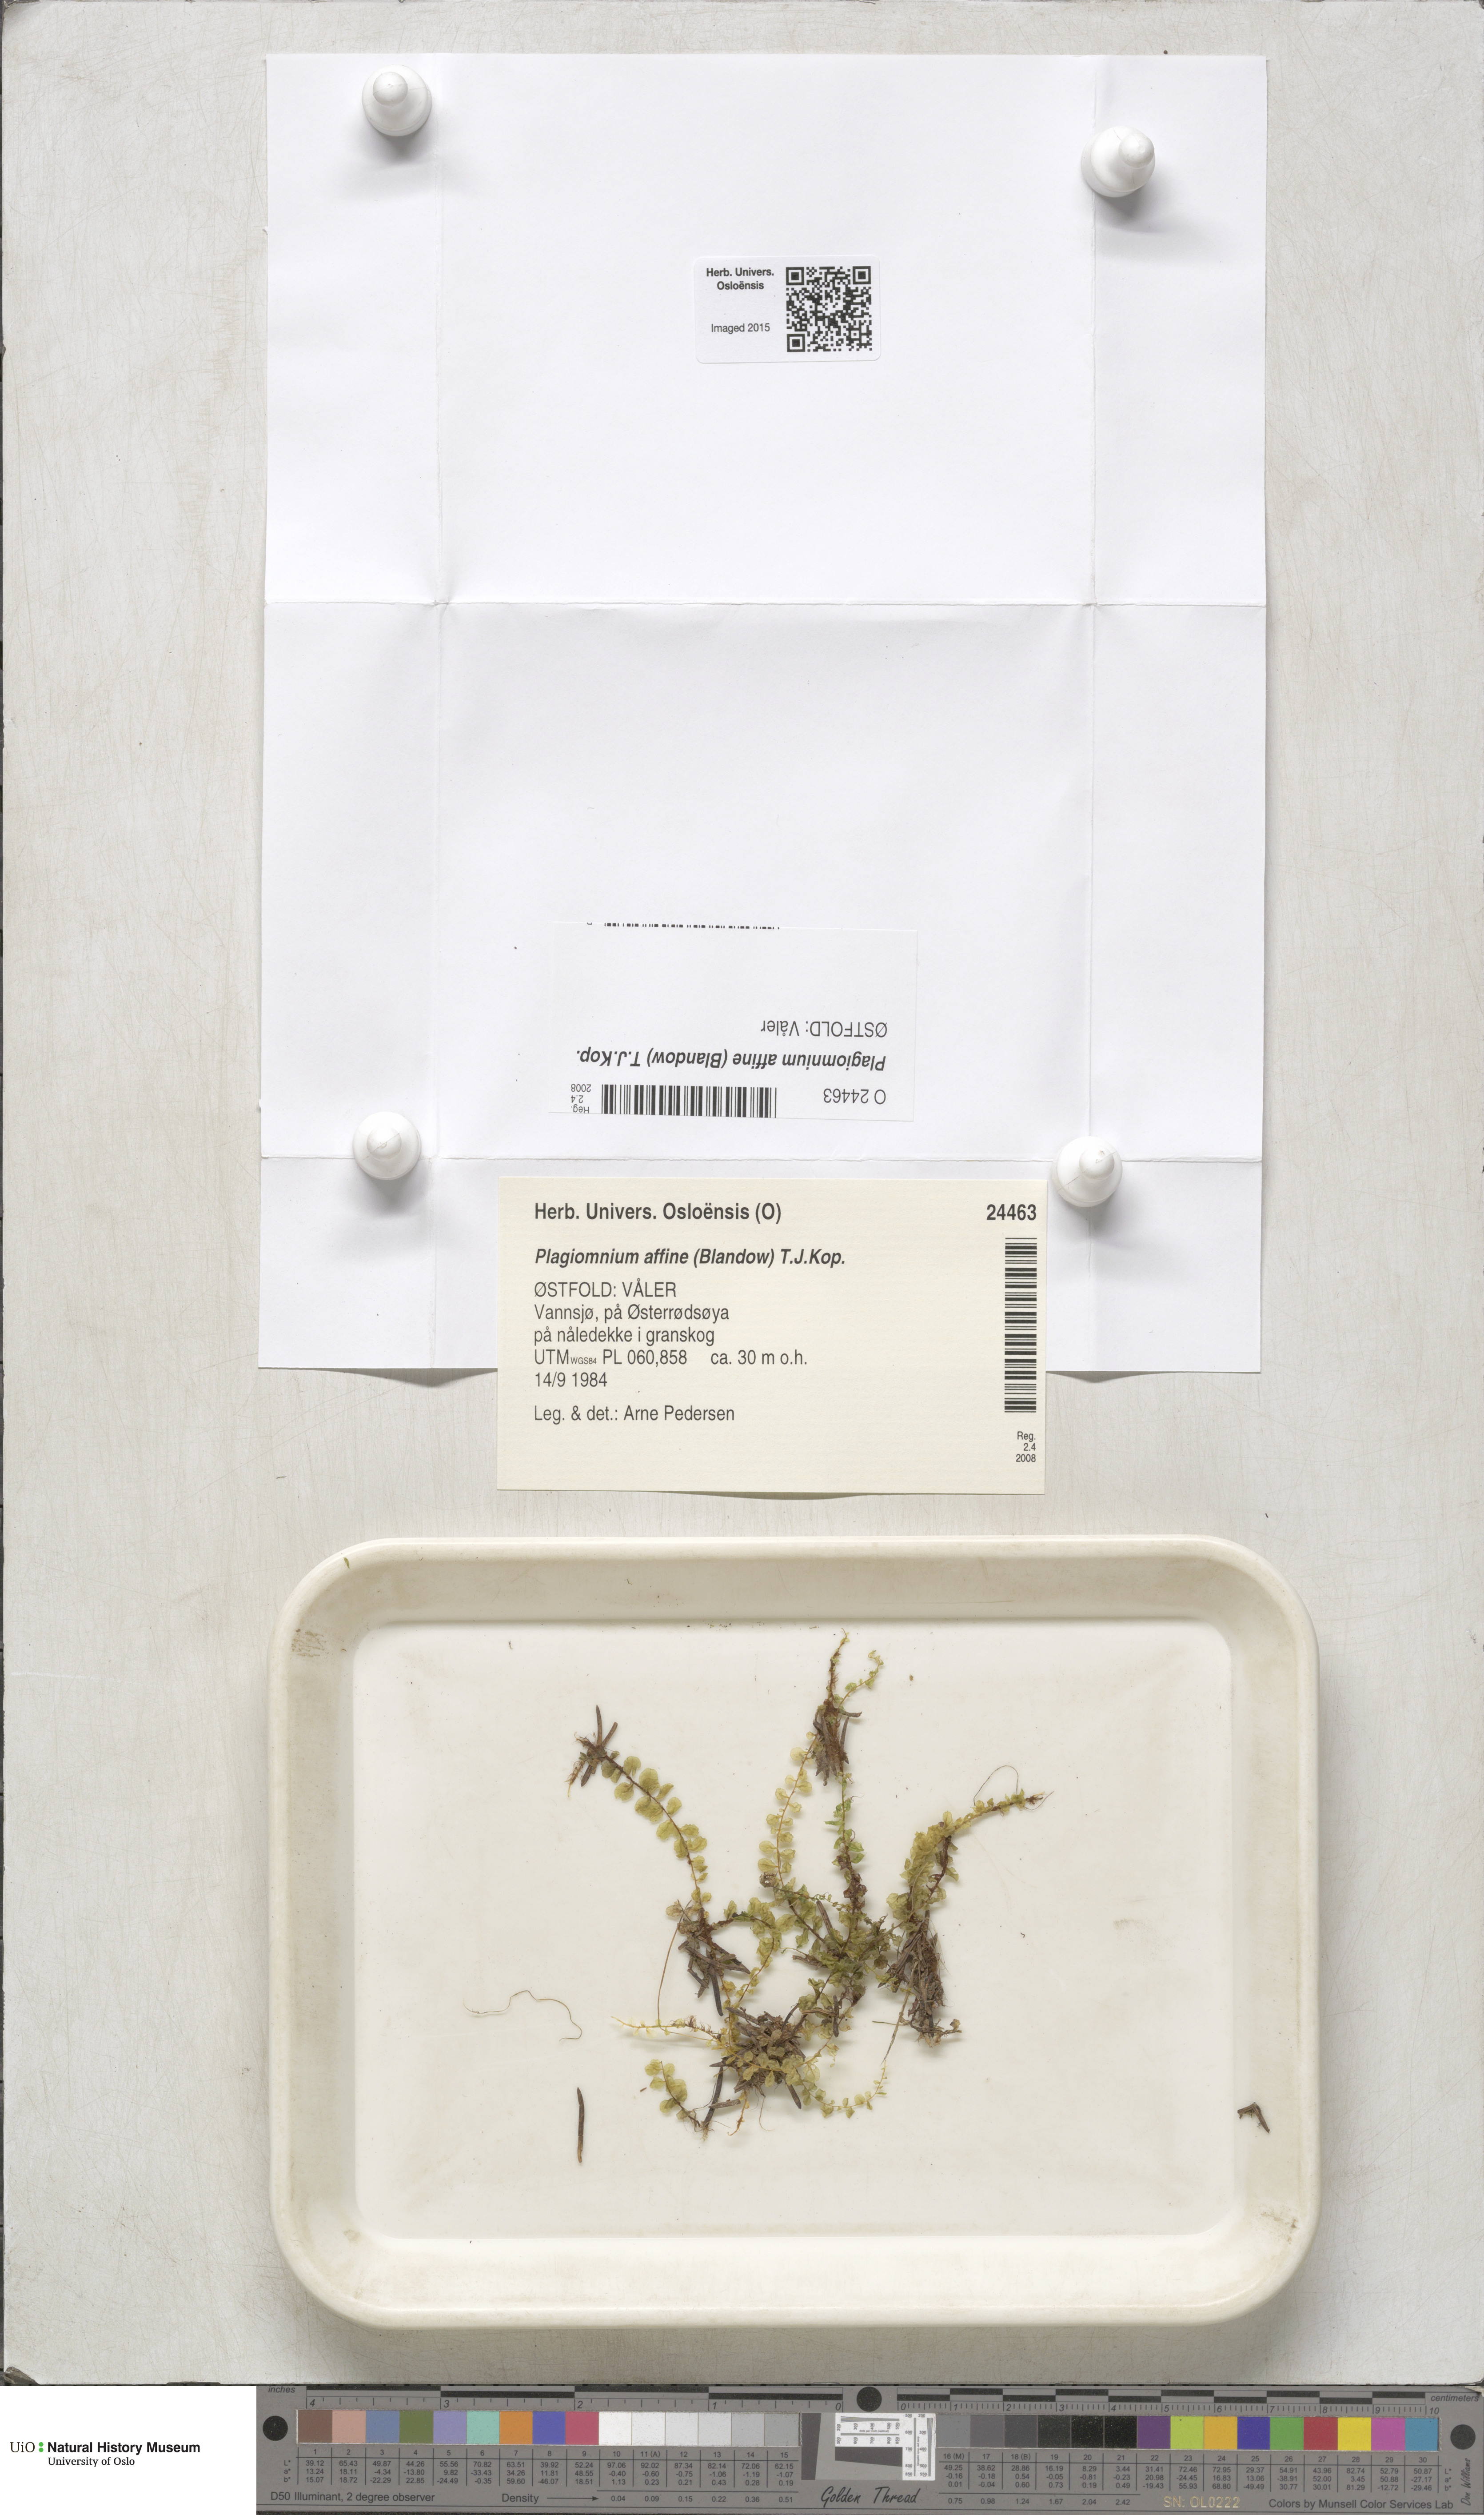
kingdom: Plantae
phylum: Bryophyta
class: Bryopsida
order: Bryales
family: Mniaceae
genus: Plagiomnium
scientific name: Plagiomnium affine
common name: Many-fruited thyme-moss
